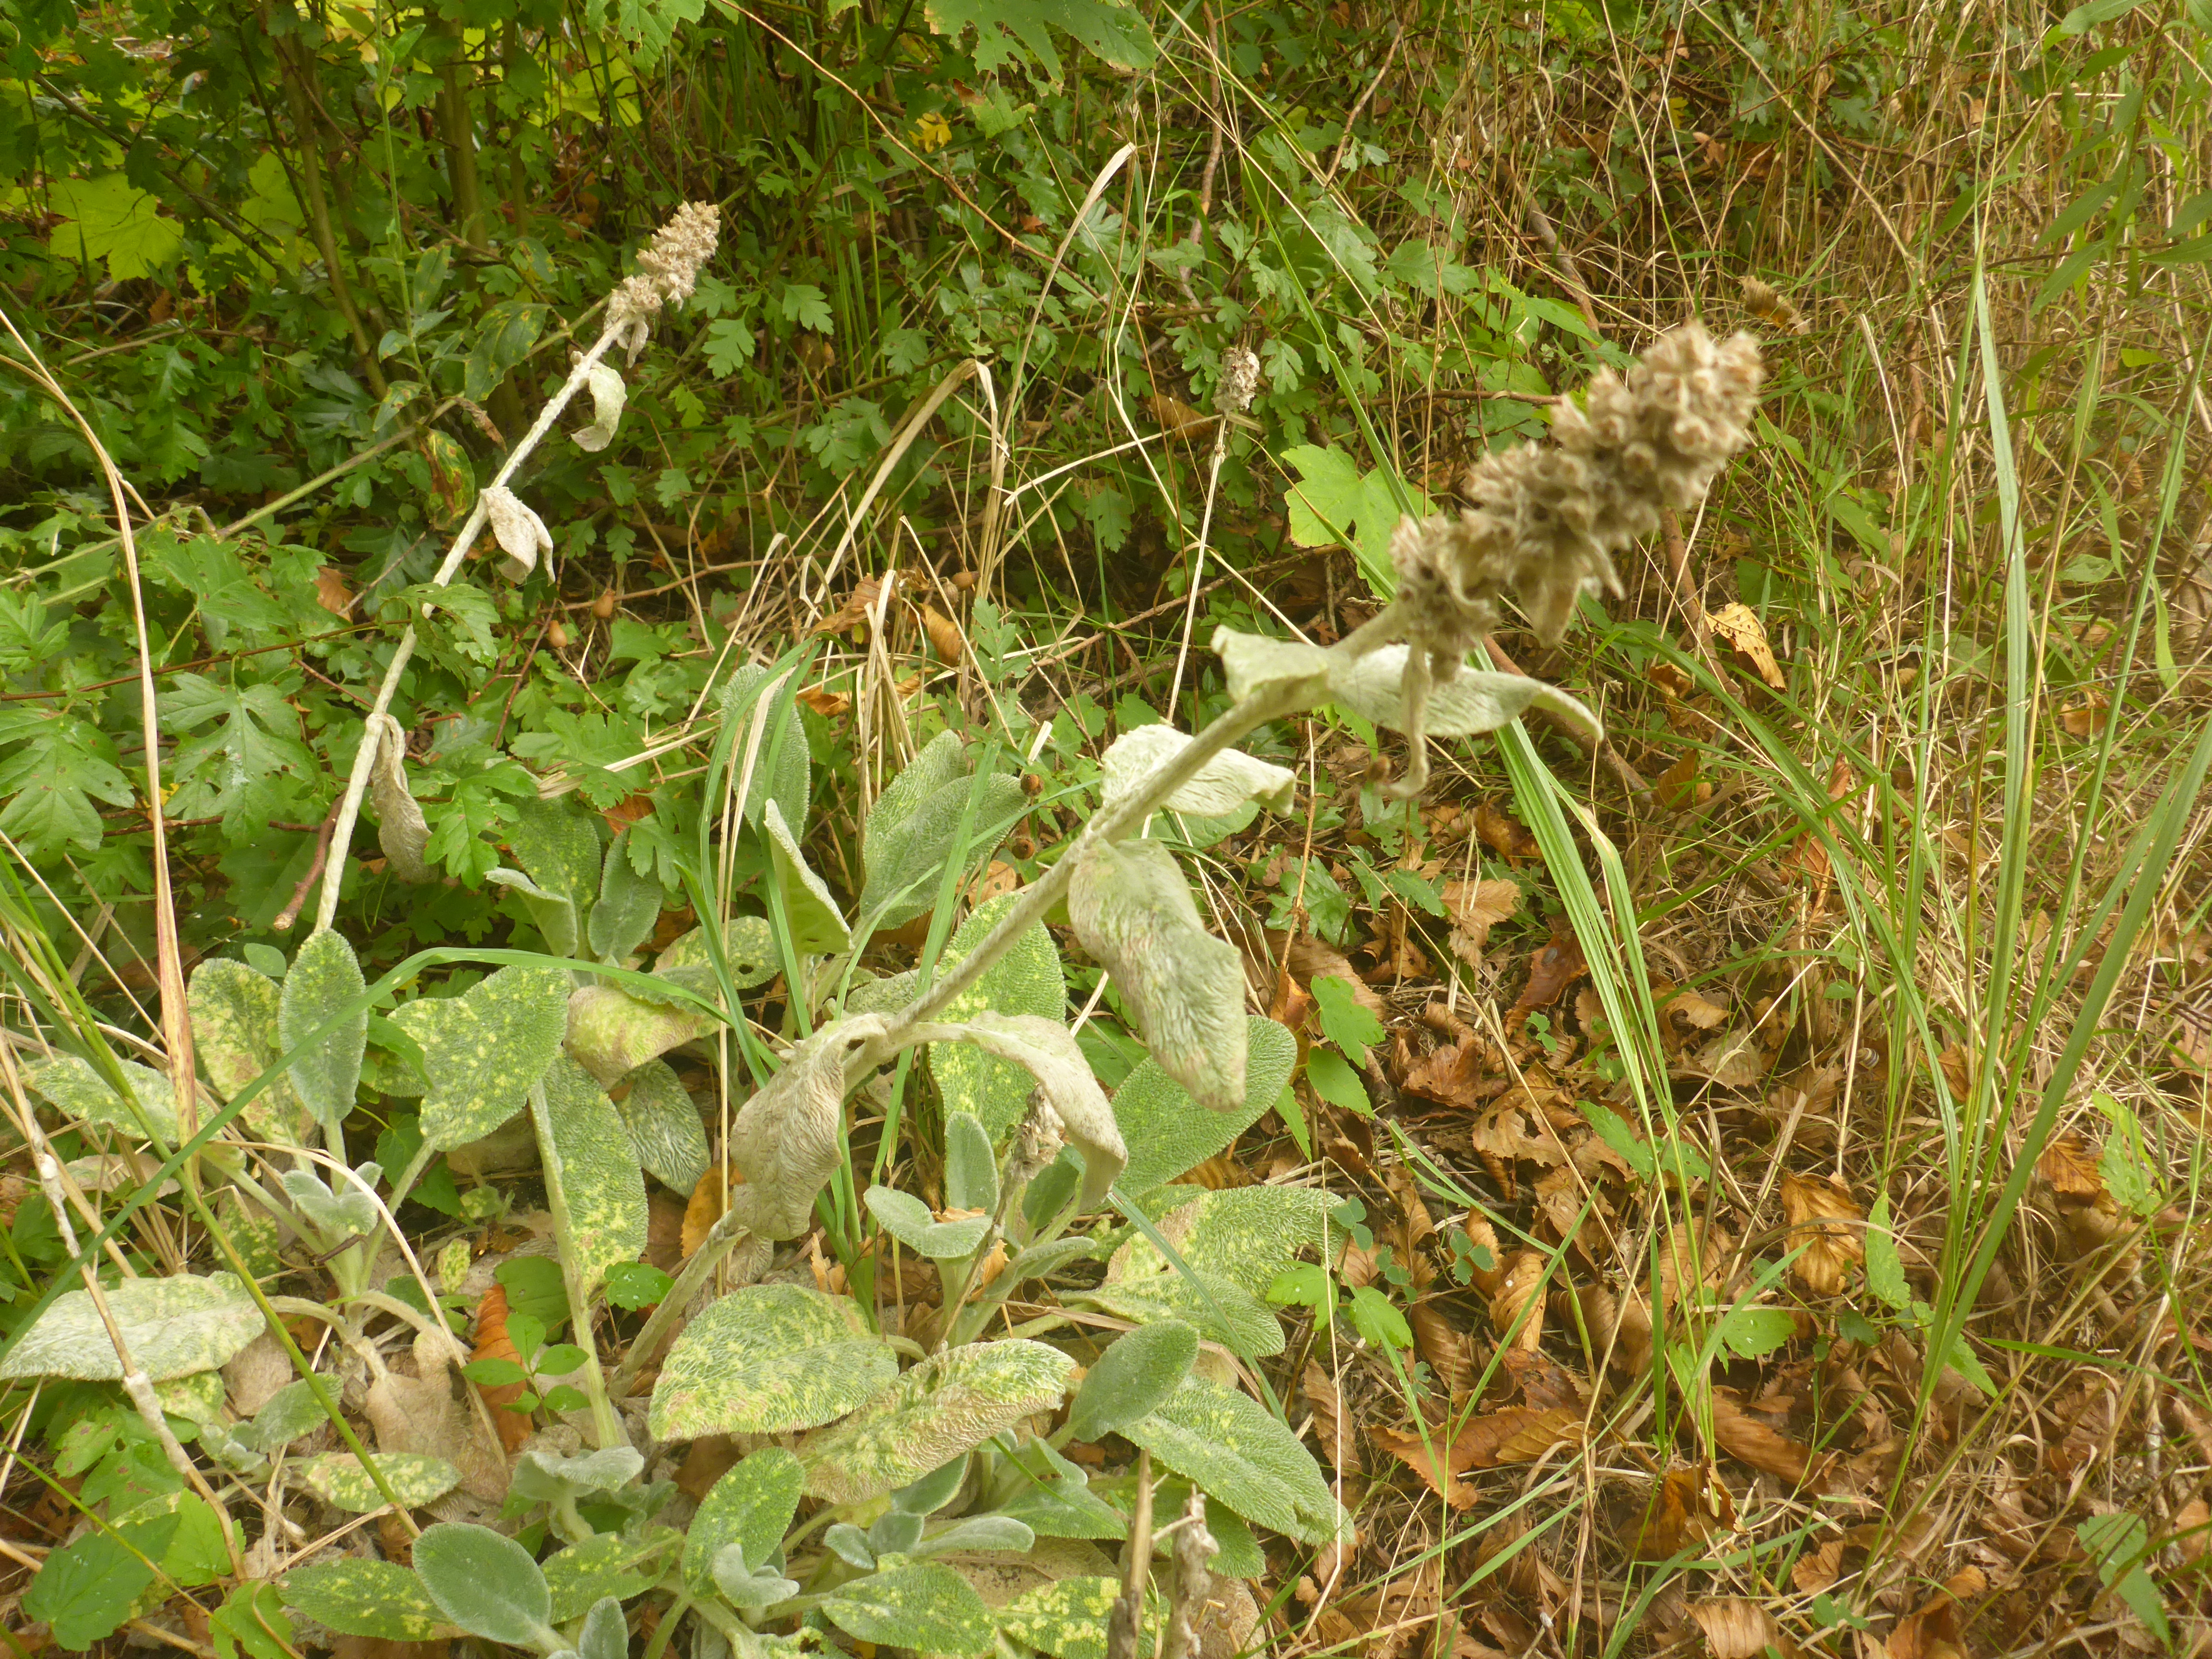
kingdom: Plantae
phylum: Tracheophyta
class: Magnoliopsida
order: Lamiales
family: Lamiaceae
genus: Stachys
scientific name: Stachys byzantina
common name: Lammeøre
